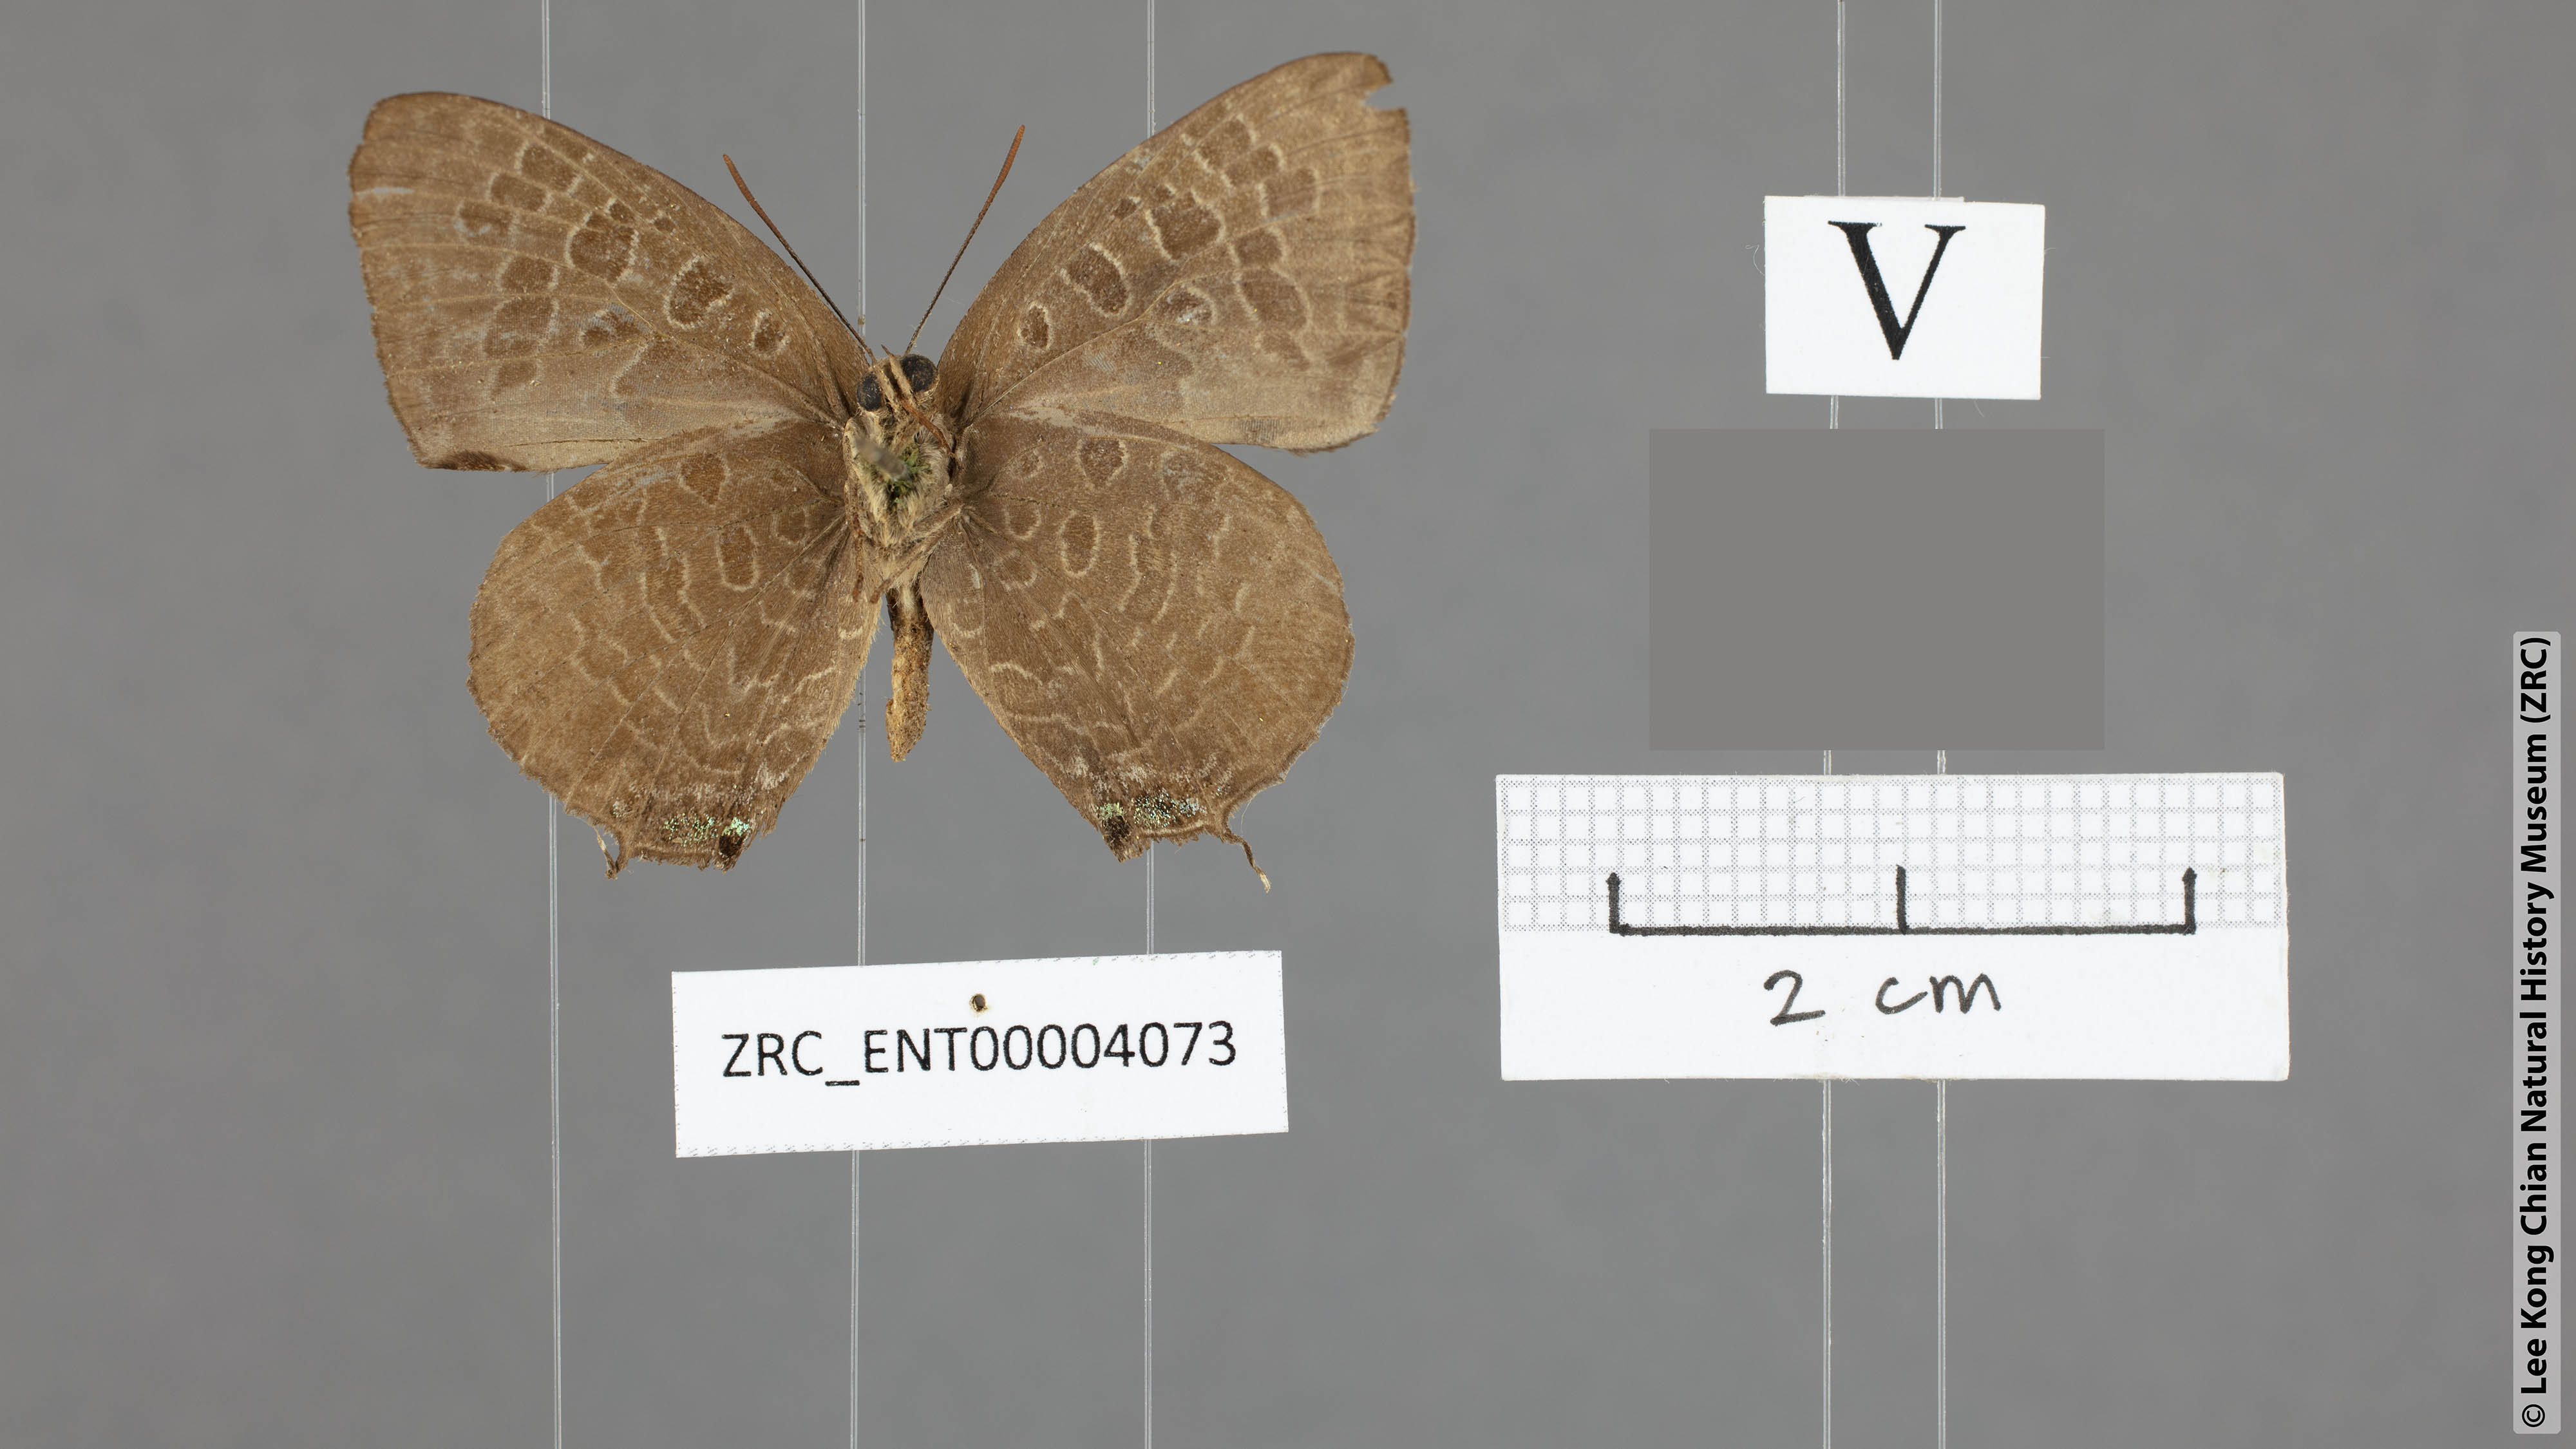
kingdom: Animalia
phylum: Arthropoda
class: Insecta
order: Lepidoptera
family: Lycaenidae
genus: Arhopala
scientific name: Arhopala hellenore
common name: Doherty's green oakblue
